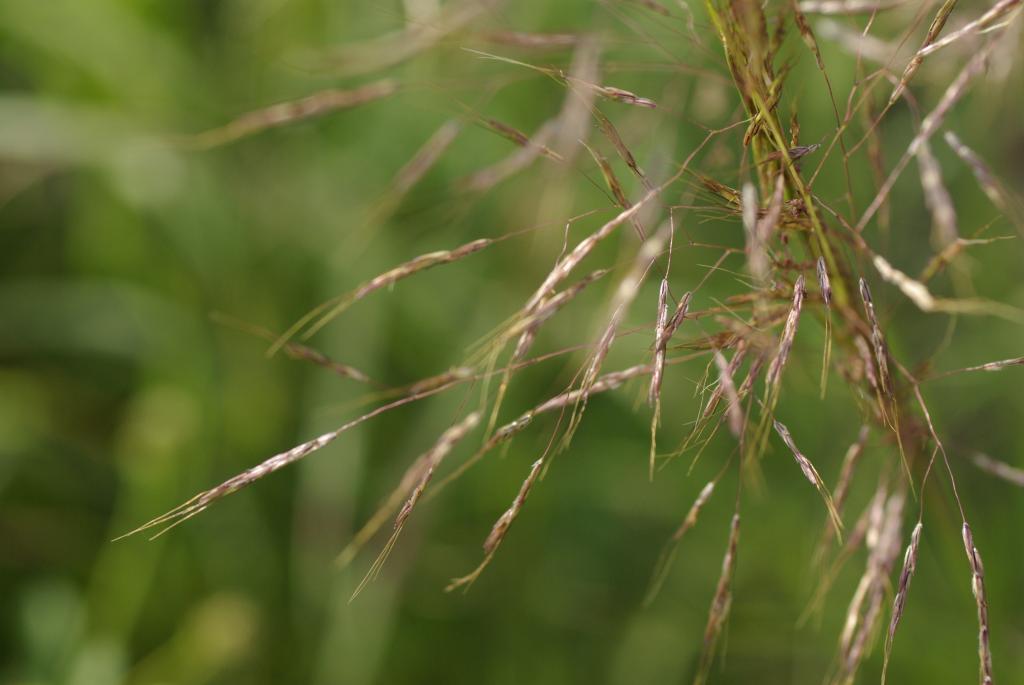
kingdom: Plantae
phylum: Tracheophyta
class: Liliopsida
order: Poales
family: Poaceae
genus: Capillipedium
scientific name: Capillipedium parviflorum
